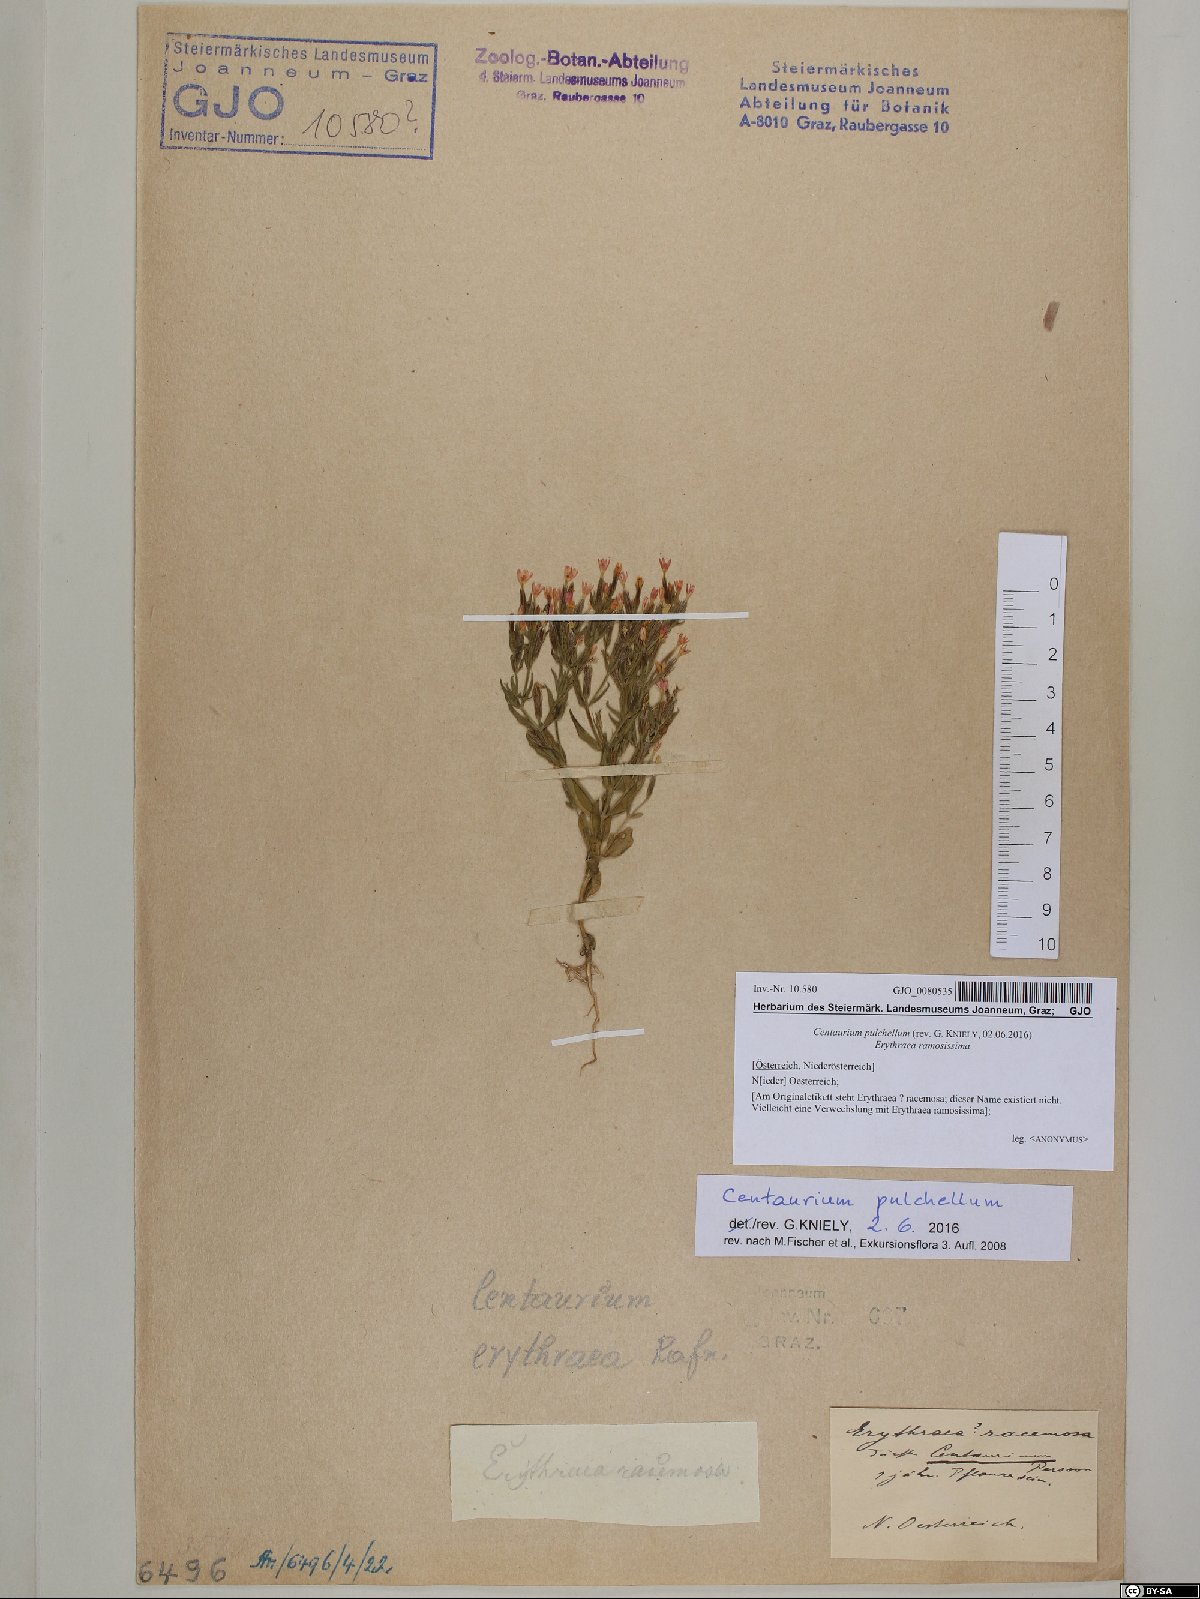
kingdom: Plantae
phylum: Tracheophyta
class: Magnoliopsida
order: Gentianales
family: Gentianaceae
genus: Centaurium
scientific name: Centaurium pulchellum
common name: Lesser centaury
